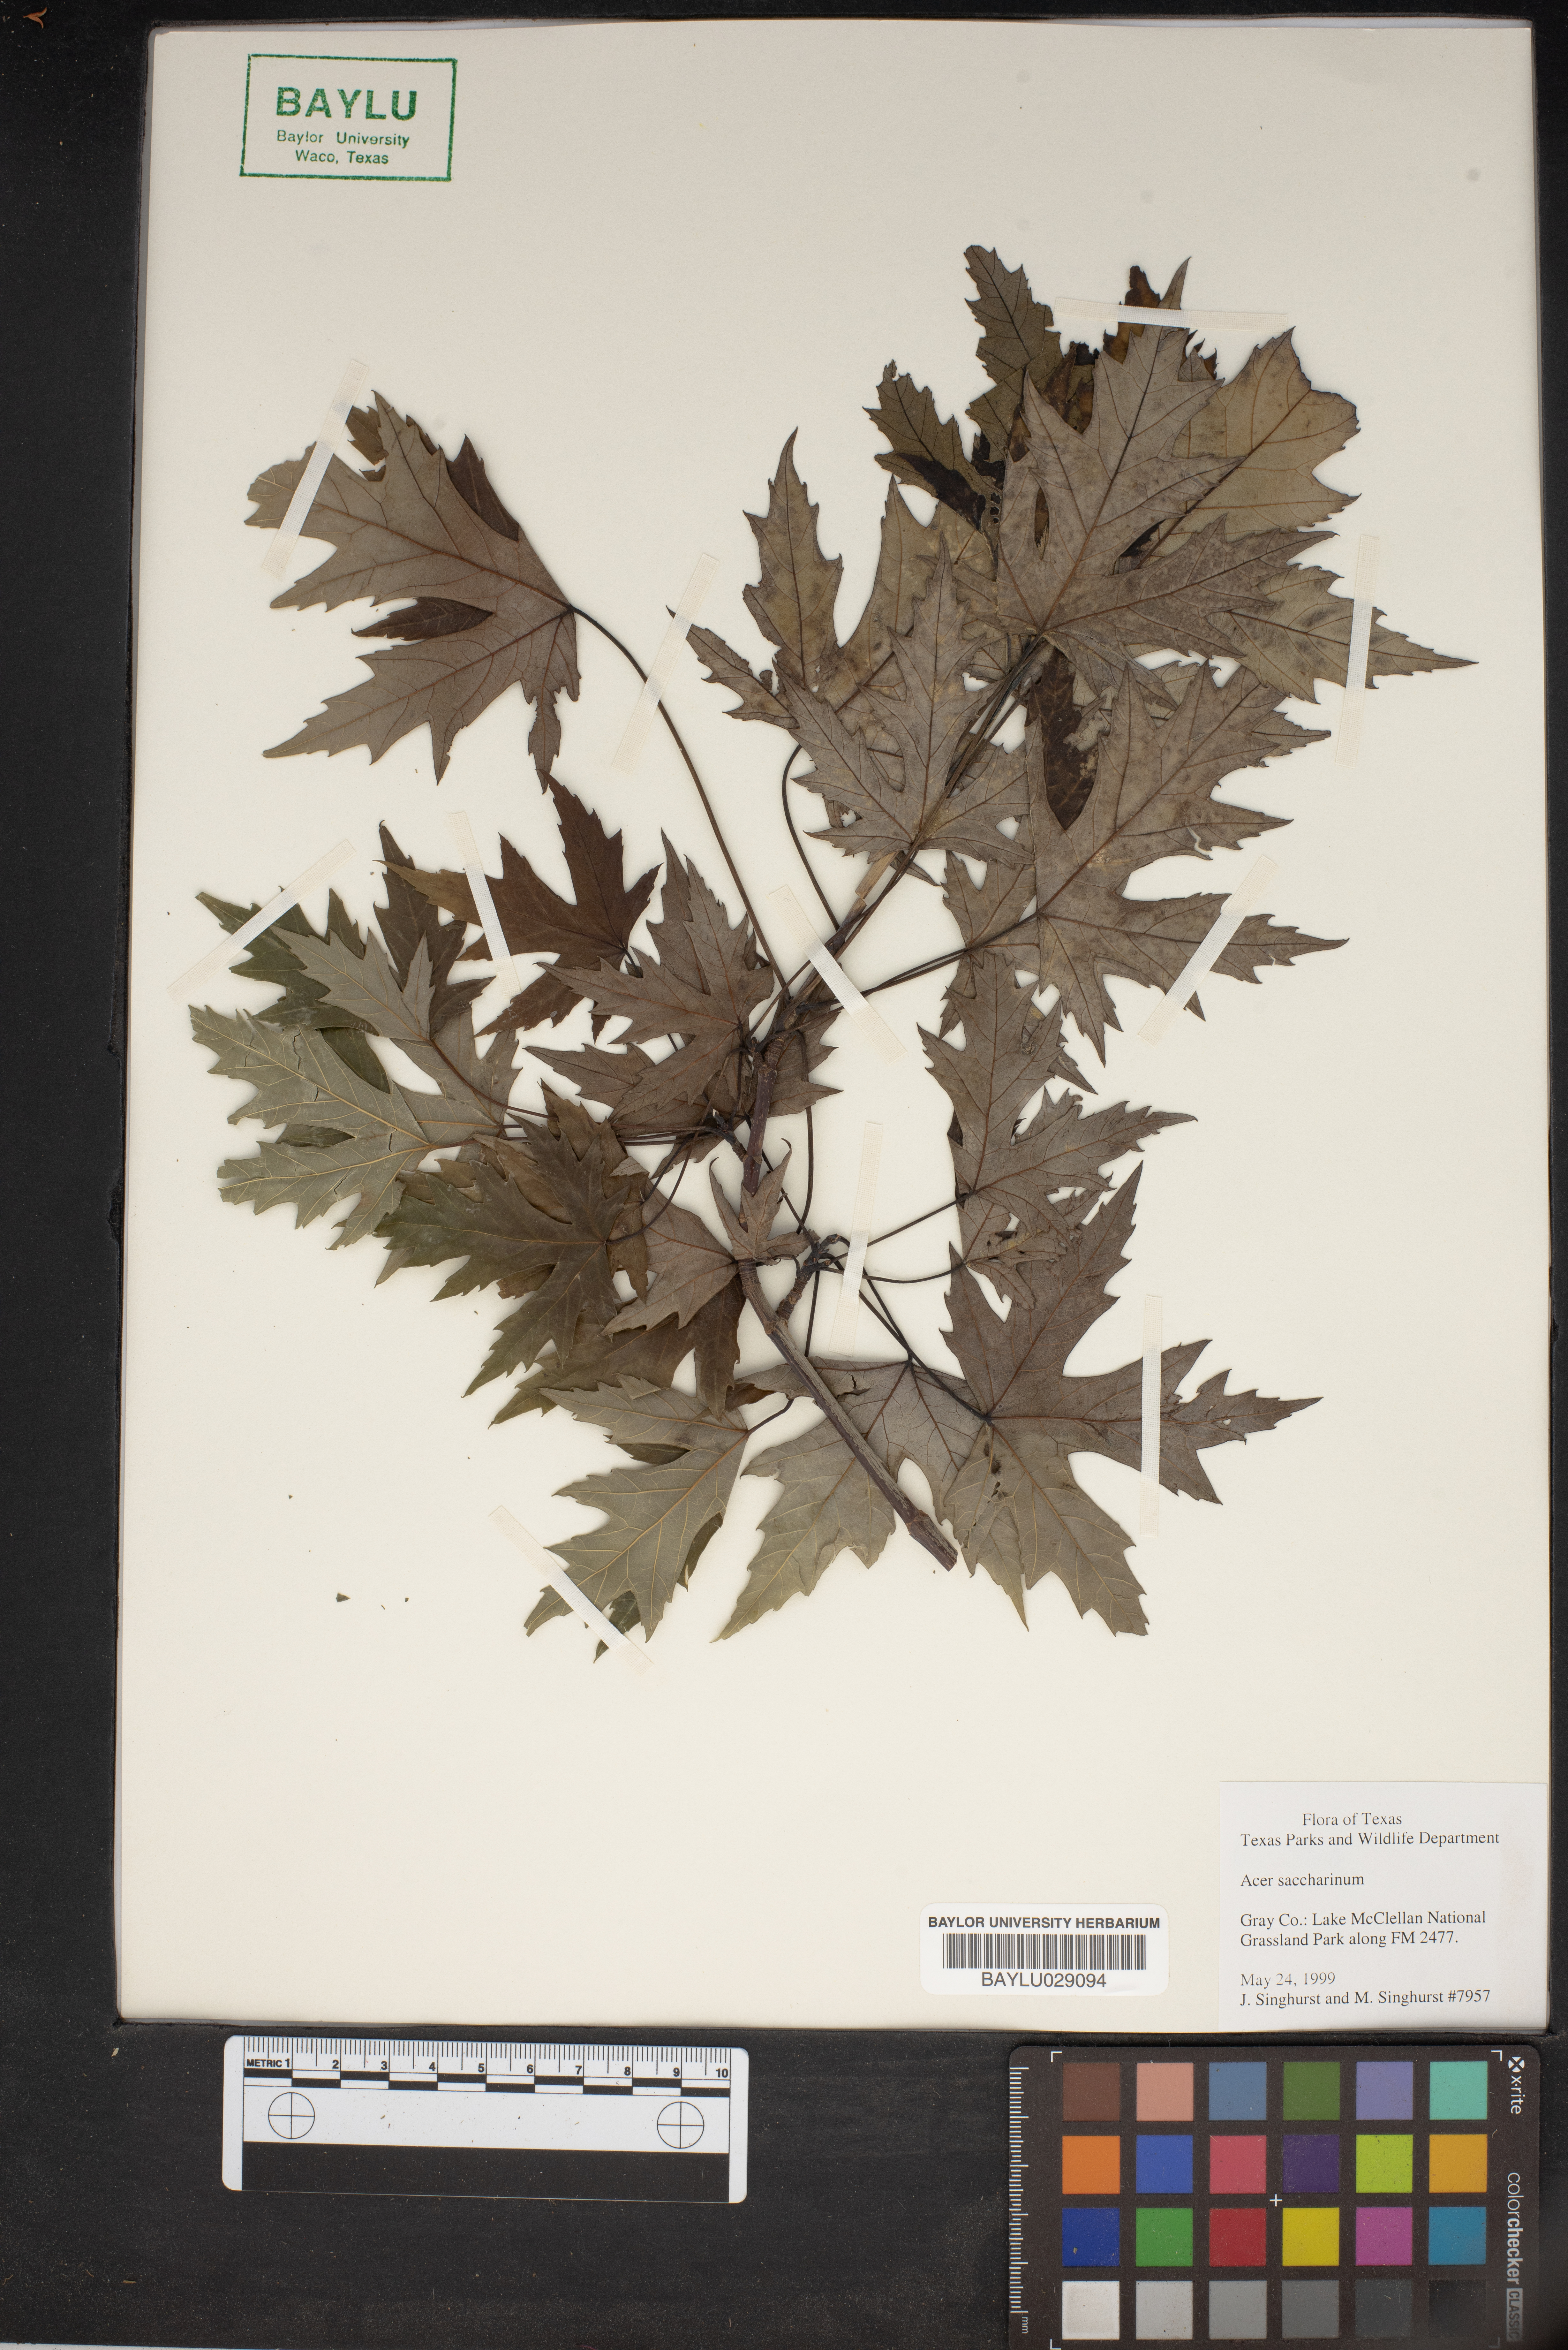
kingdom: Plantae
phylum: Tracheophyta
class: Magnoliopsida
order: Sapindales
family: Sapindaceae
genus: Acer
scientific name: Acer saccharinum
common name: Silver maple
